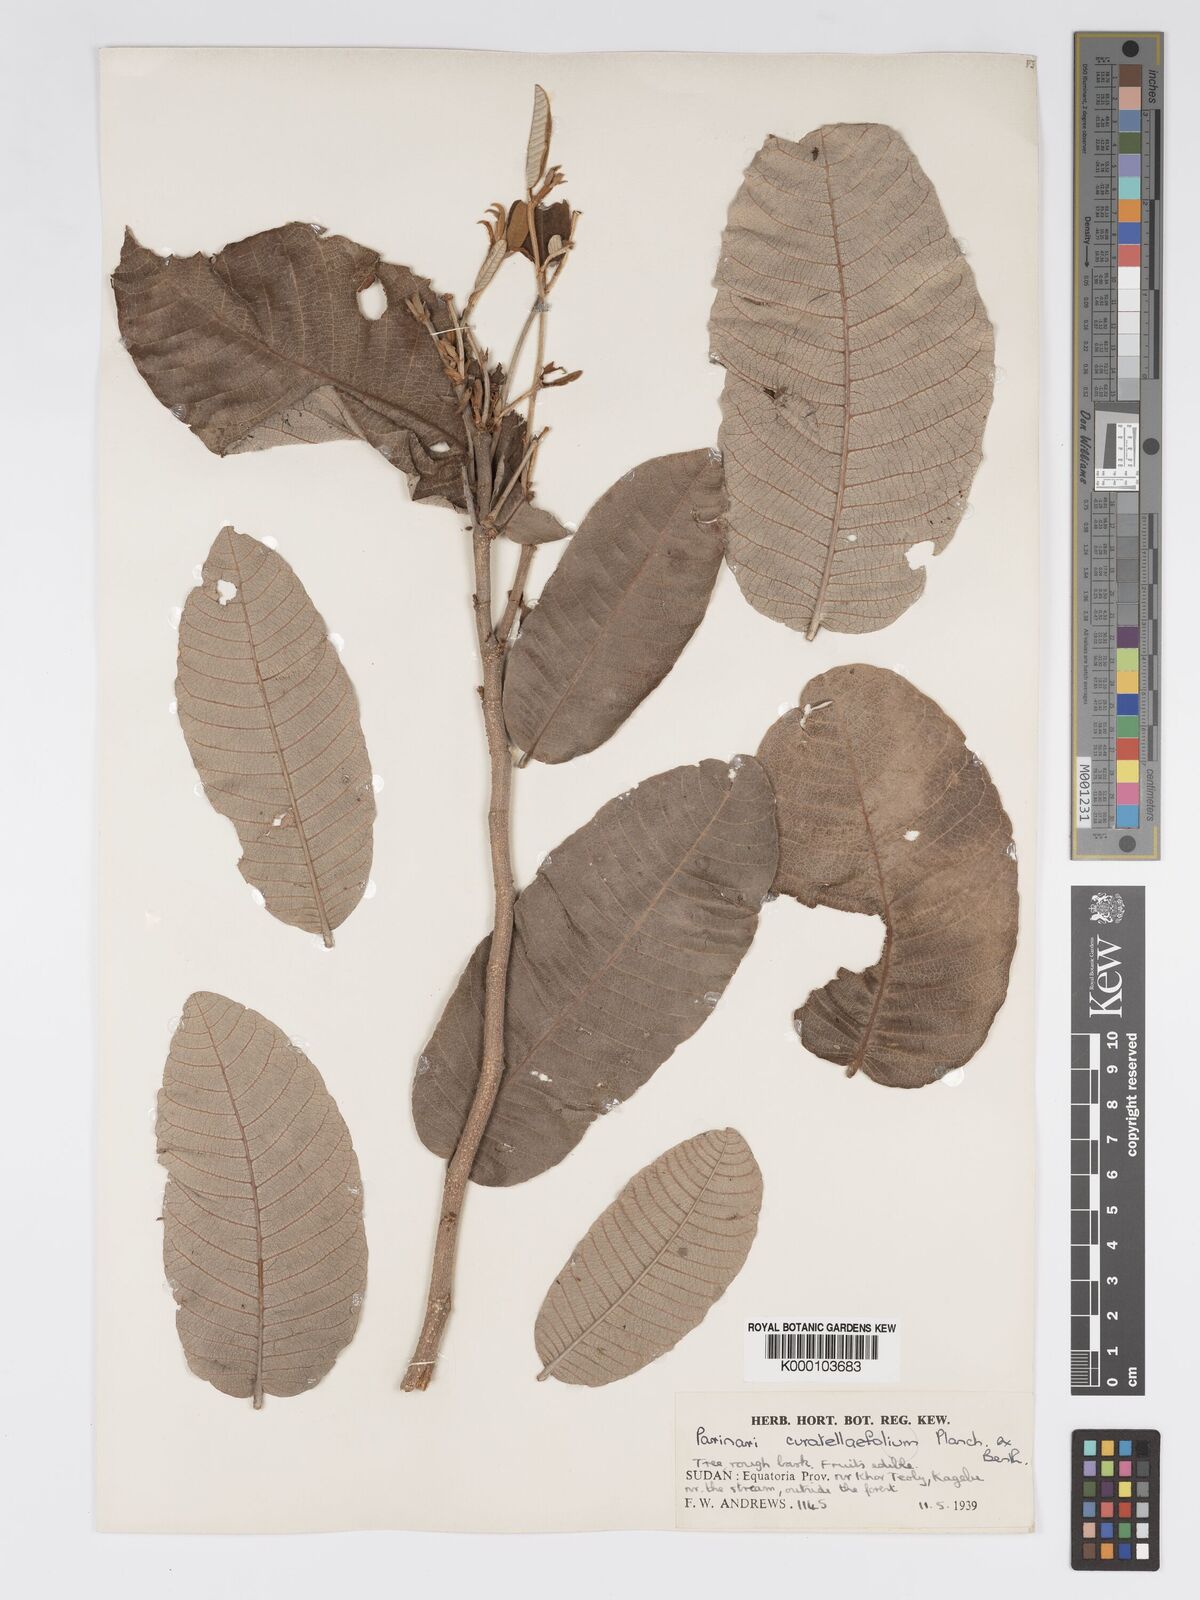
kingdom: Plantae
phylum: Tracheophyta
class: Magnoliopsida
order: Malpighiales
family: Chrysobalanaceae
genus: Parinari
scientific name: Parinari curatellifolia
